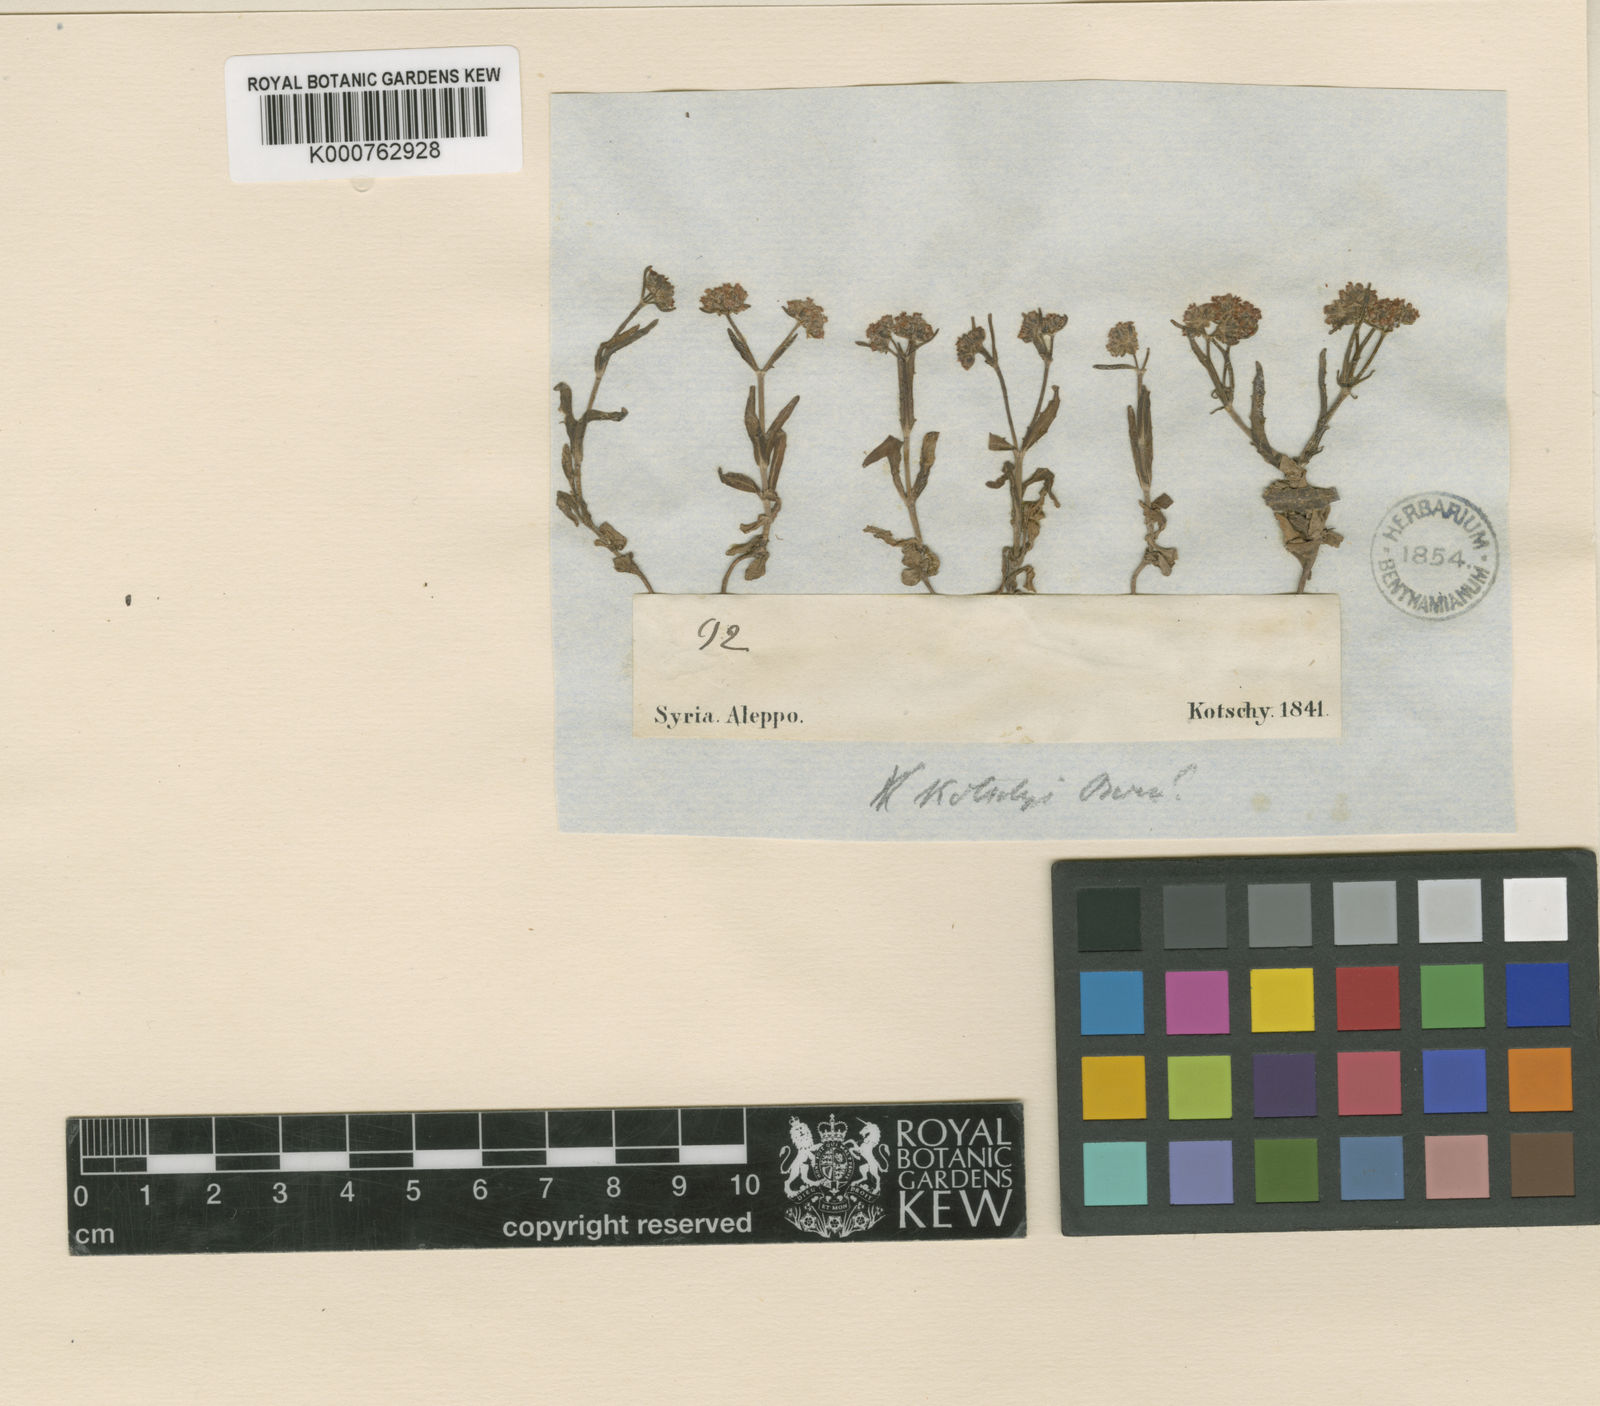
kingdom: Plantae
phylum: Tracheophyta
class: Magnoliopsida
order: Dipsacales
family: Caprifoliaceae
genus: Valerianella
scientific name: Valerianella kotschyi
